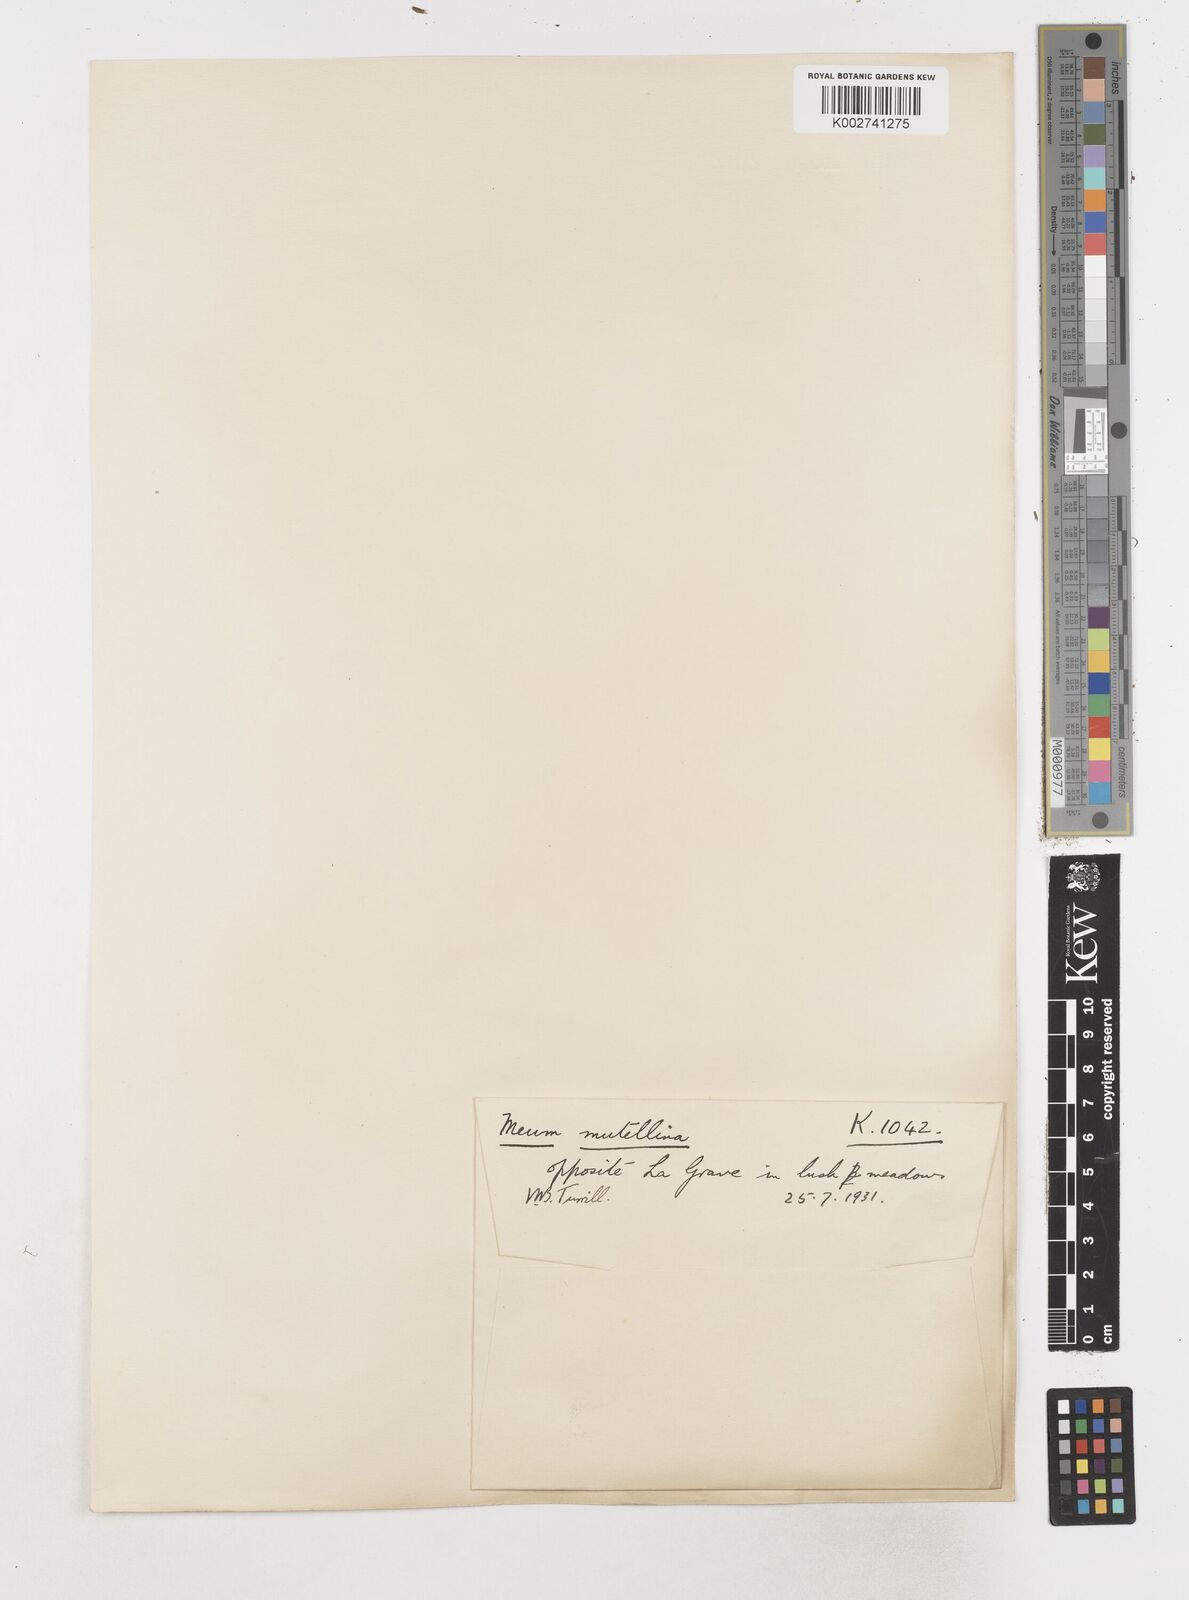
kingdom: Plantae
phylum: Tracheophyta
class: Magnoliopsida
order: Apiales
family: Apiaceae
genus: Mutellina
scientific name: Mutellina adonidifolia
